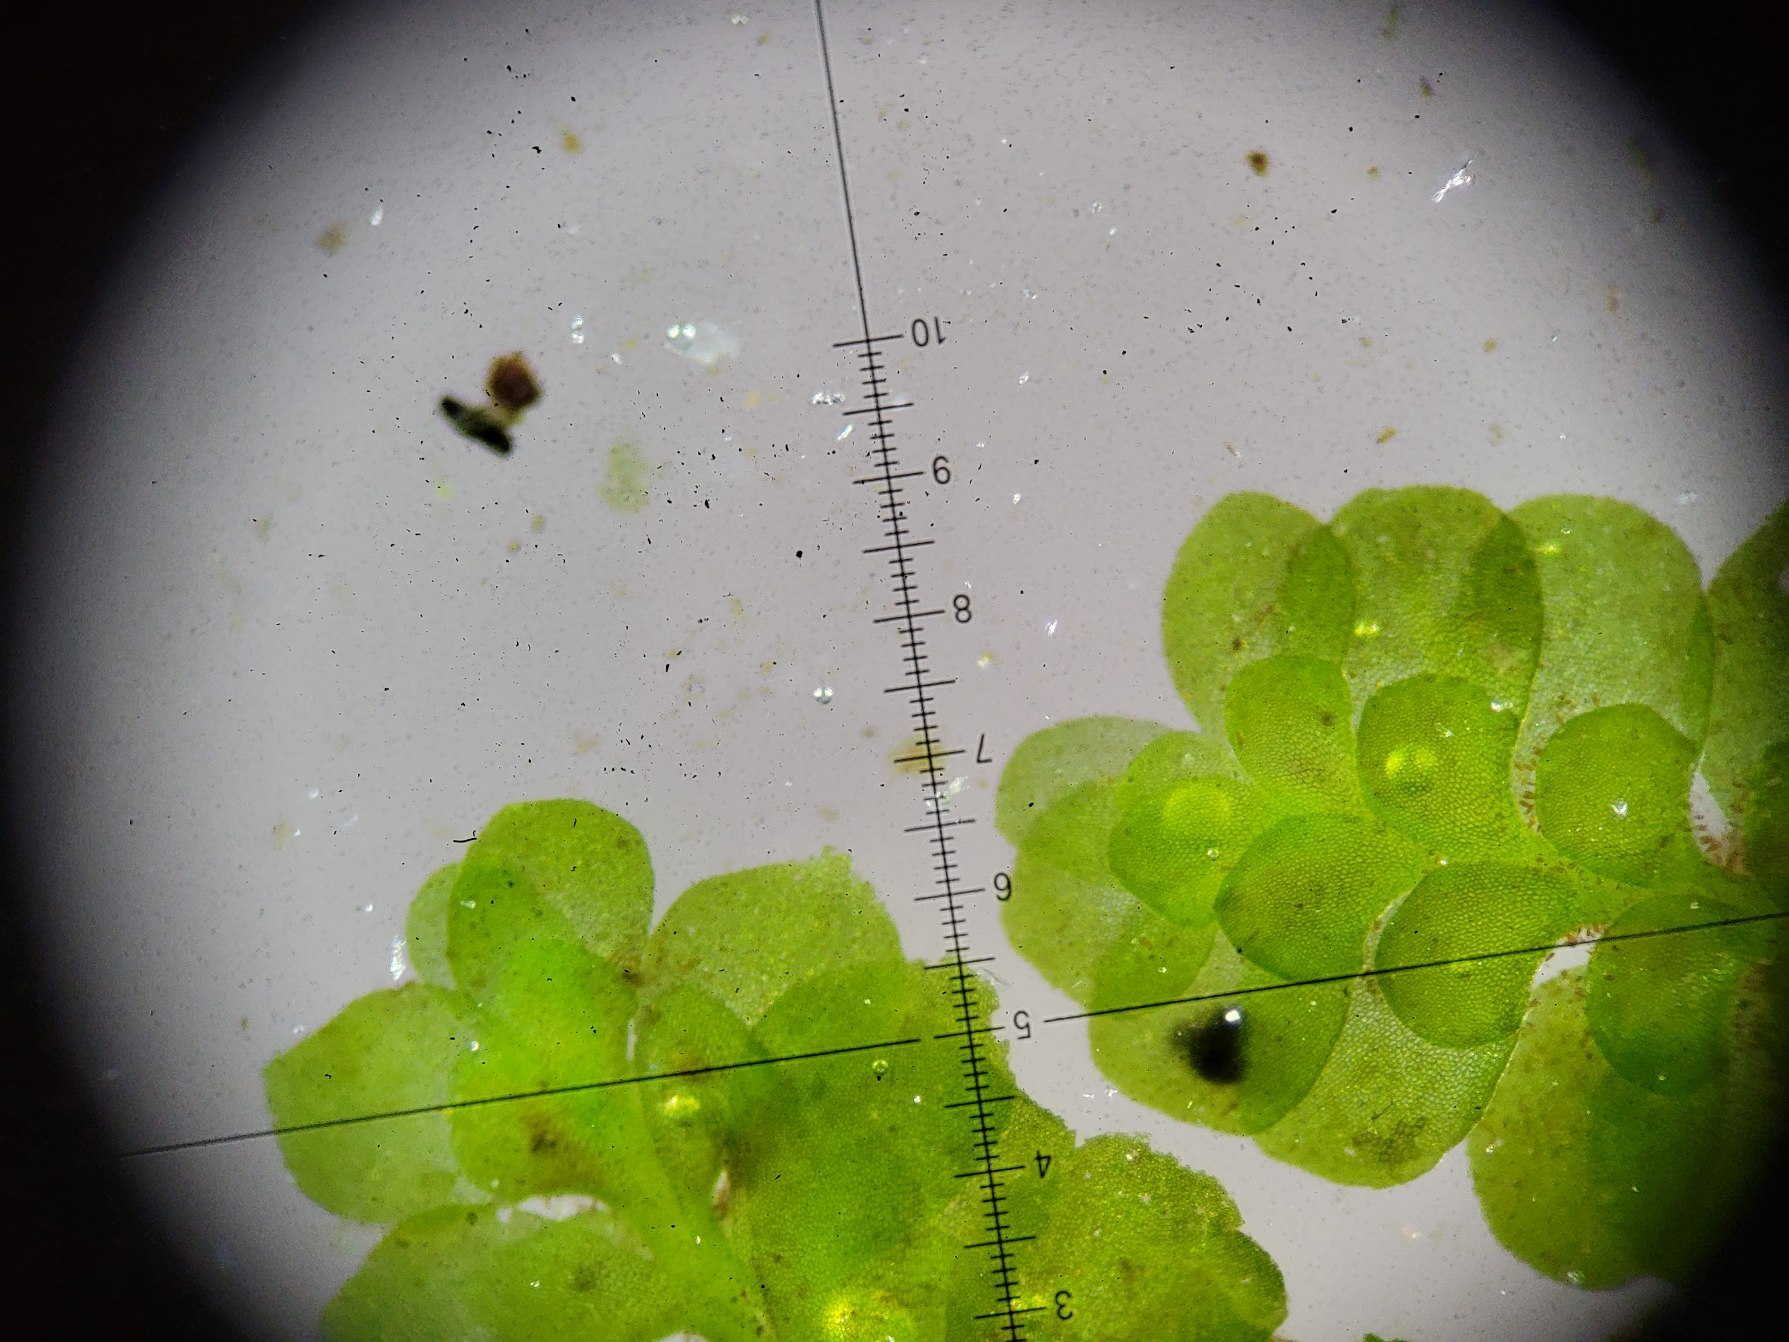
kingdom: Plantae
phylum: Marchantiophyta
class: Jungermanniopsida
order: Jungermanniales
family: Scapaniaceae
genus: Scapania
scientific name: Scapania undulata
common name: Bæk-tveblad
